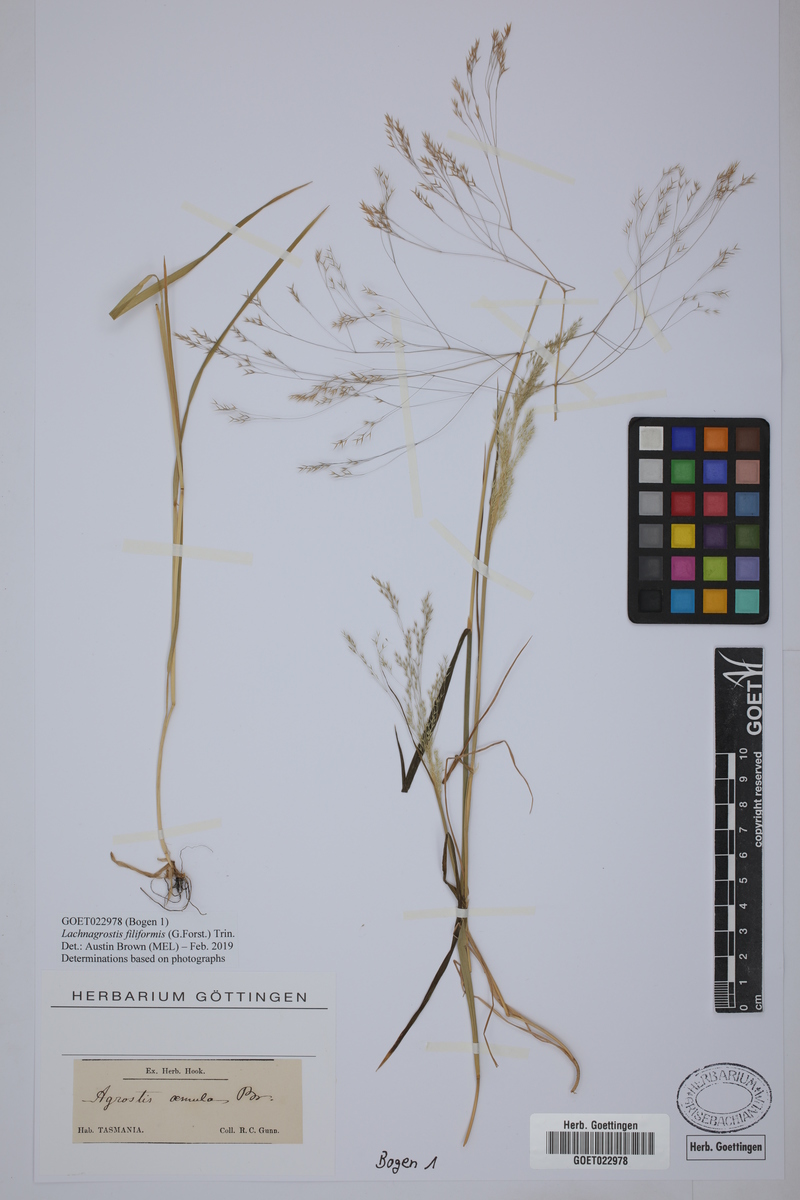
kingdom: Plantae
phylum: Tracheophyta
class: Liliopsida
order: Poales
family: Poaceae
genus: Lachnagrostis
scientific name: Lachnagrostis filiformis
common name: Bentgrass
